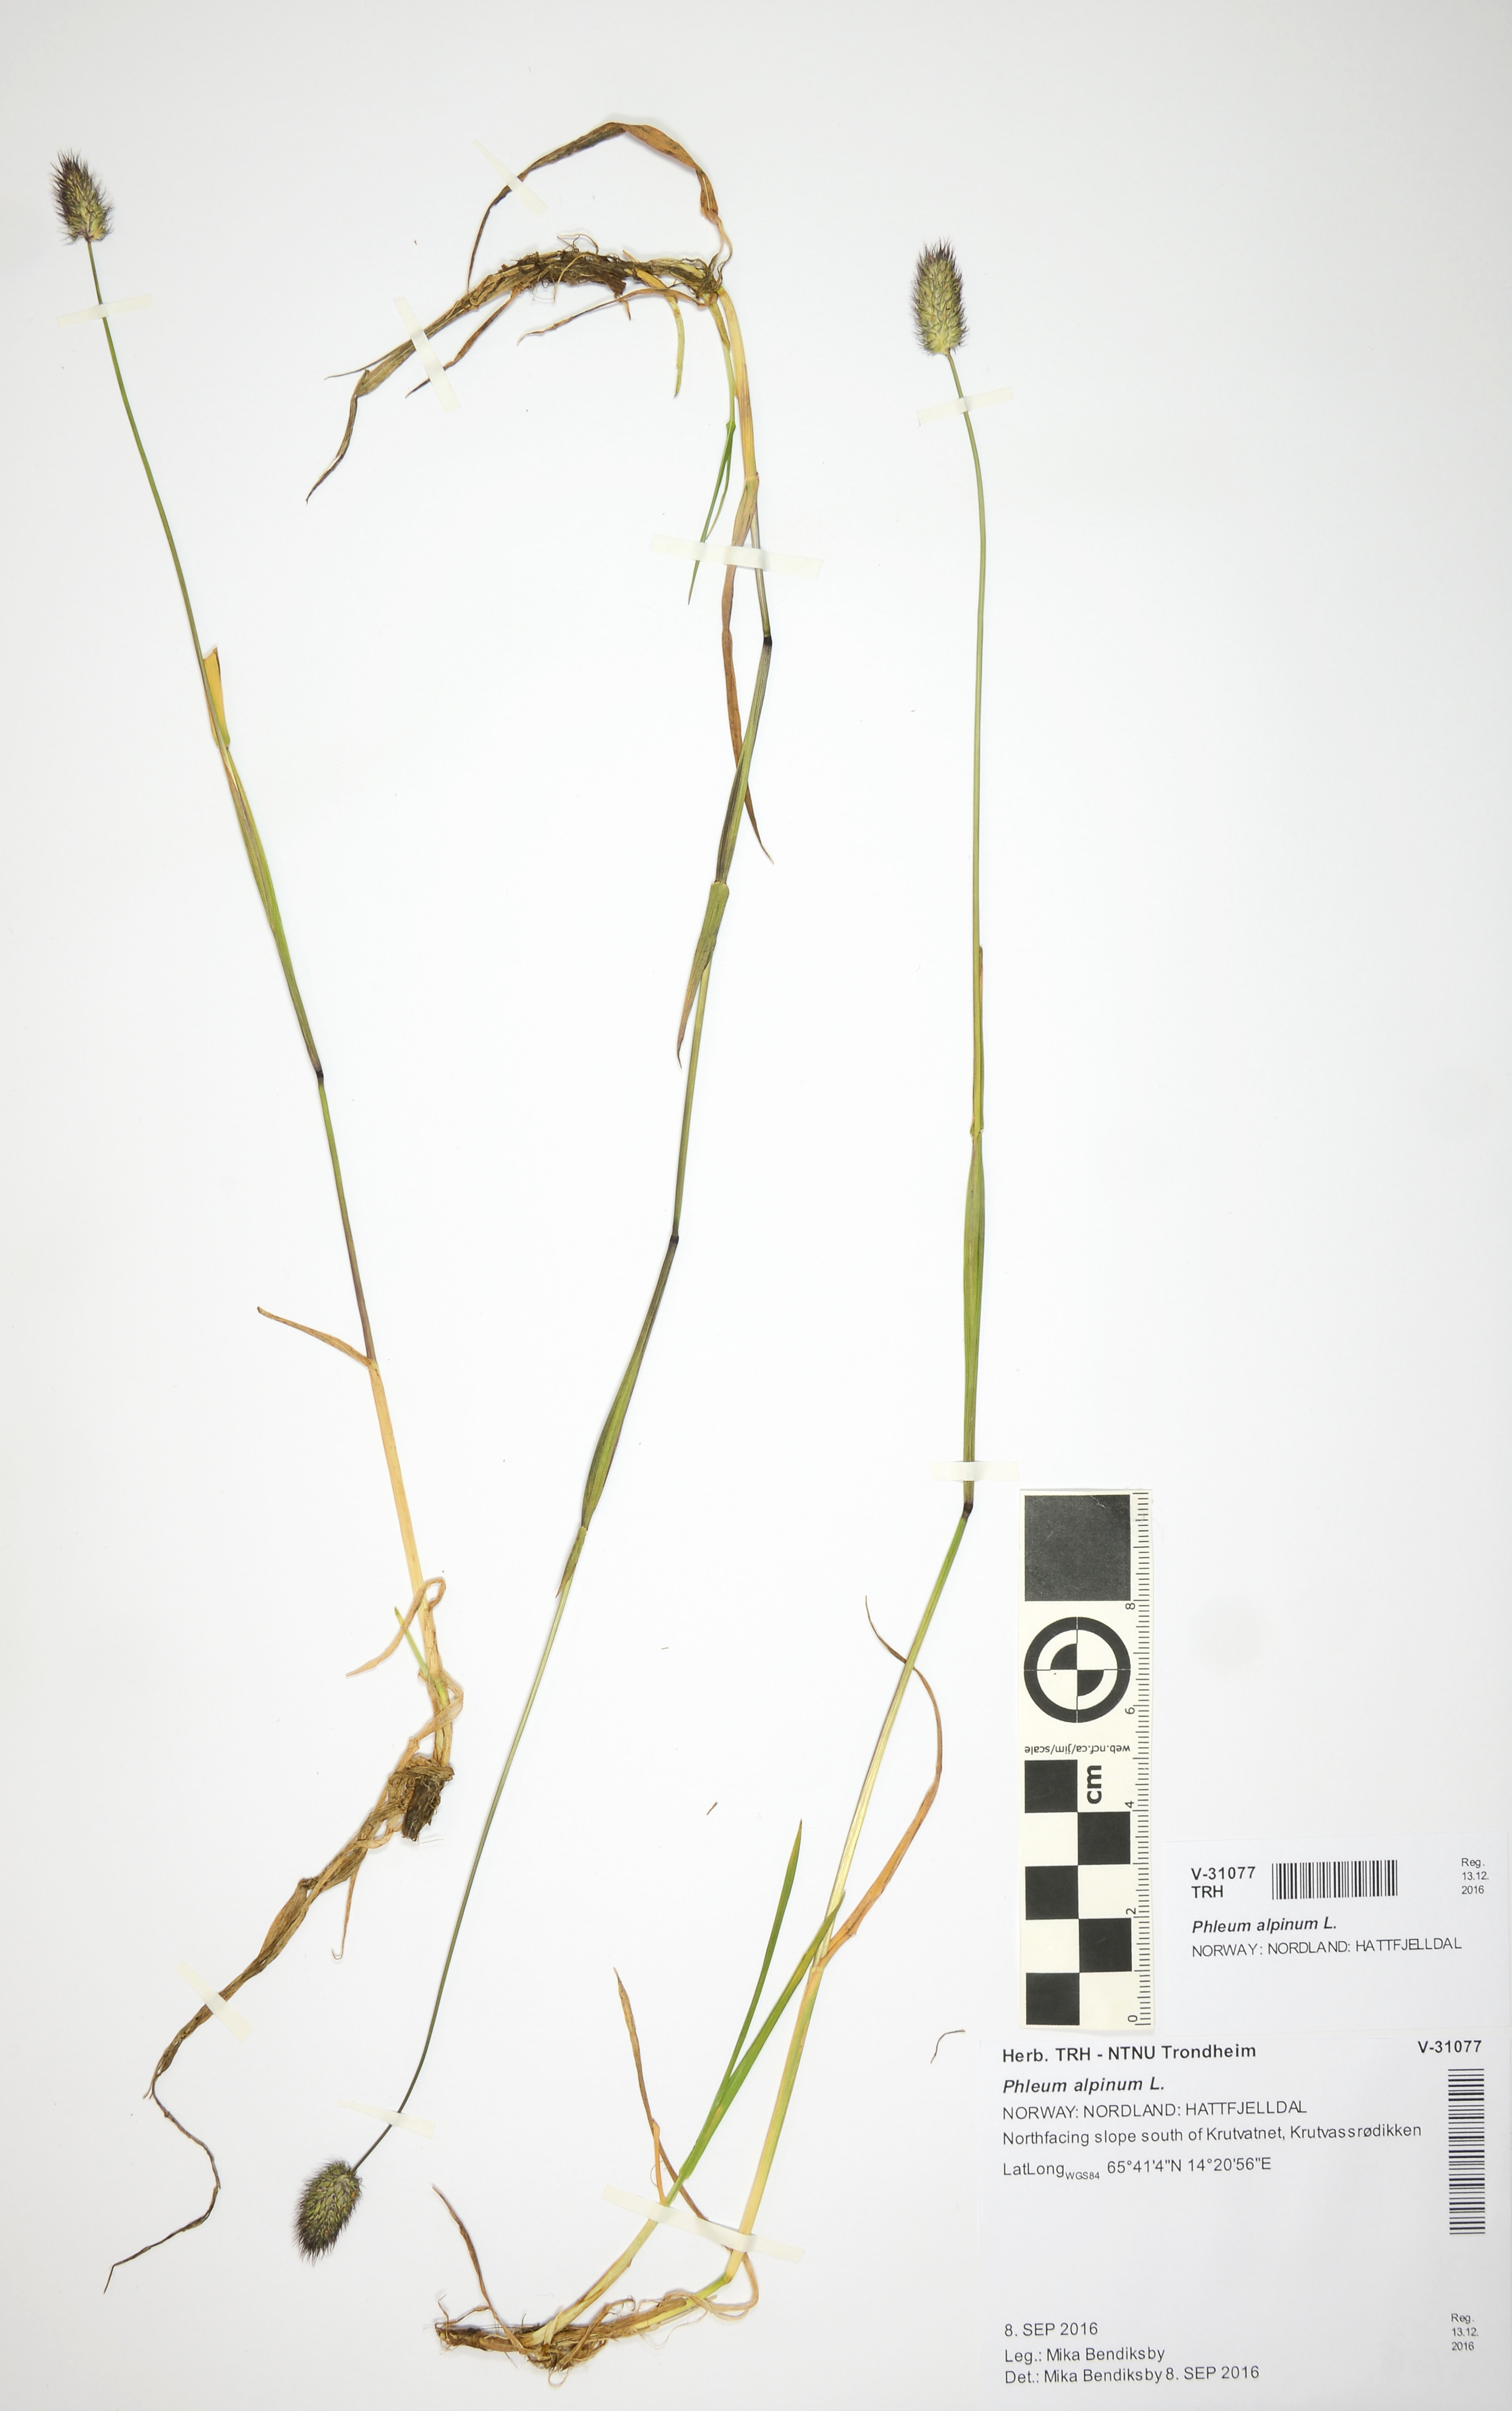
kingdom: Plantae
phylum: Tracheophyta
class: Liliopsida
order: Poales
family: Poaceae
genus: Phleum
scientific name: Phleum alpinum
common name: Alpine cat's-tail
